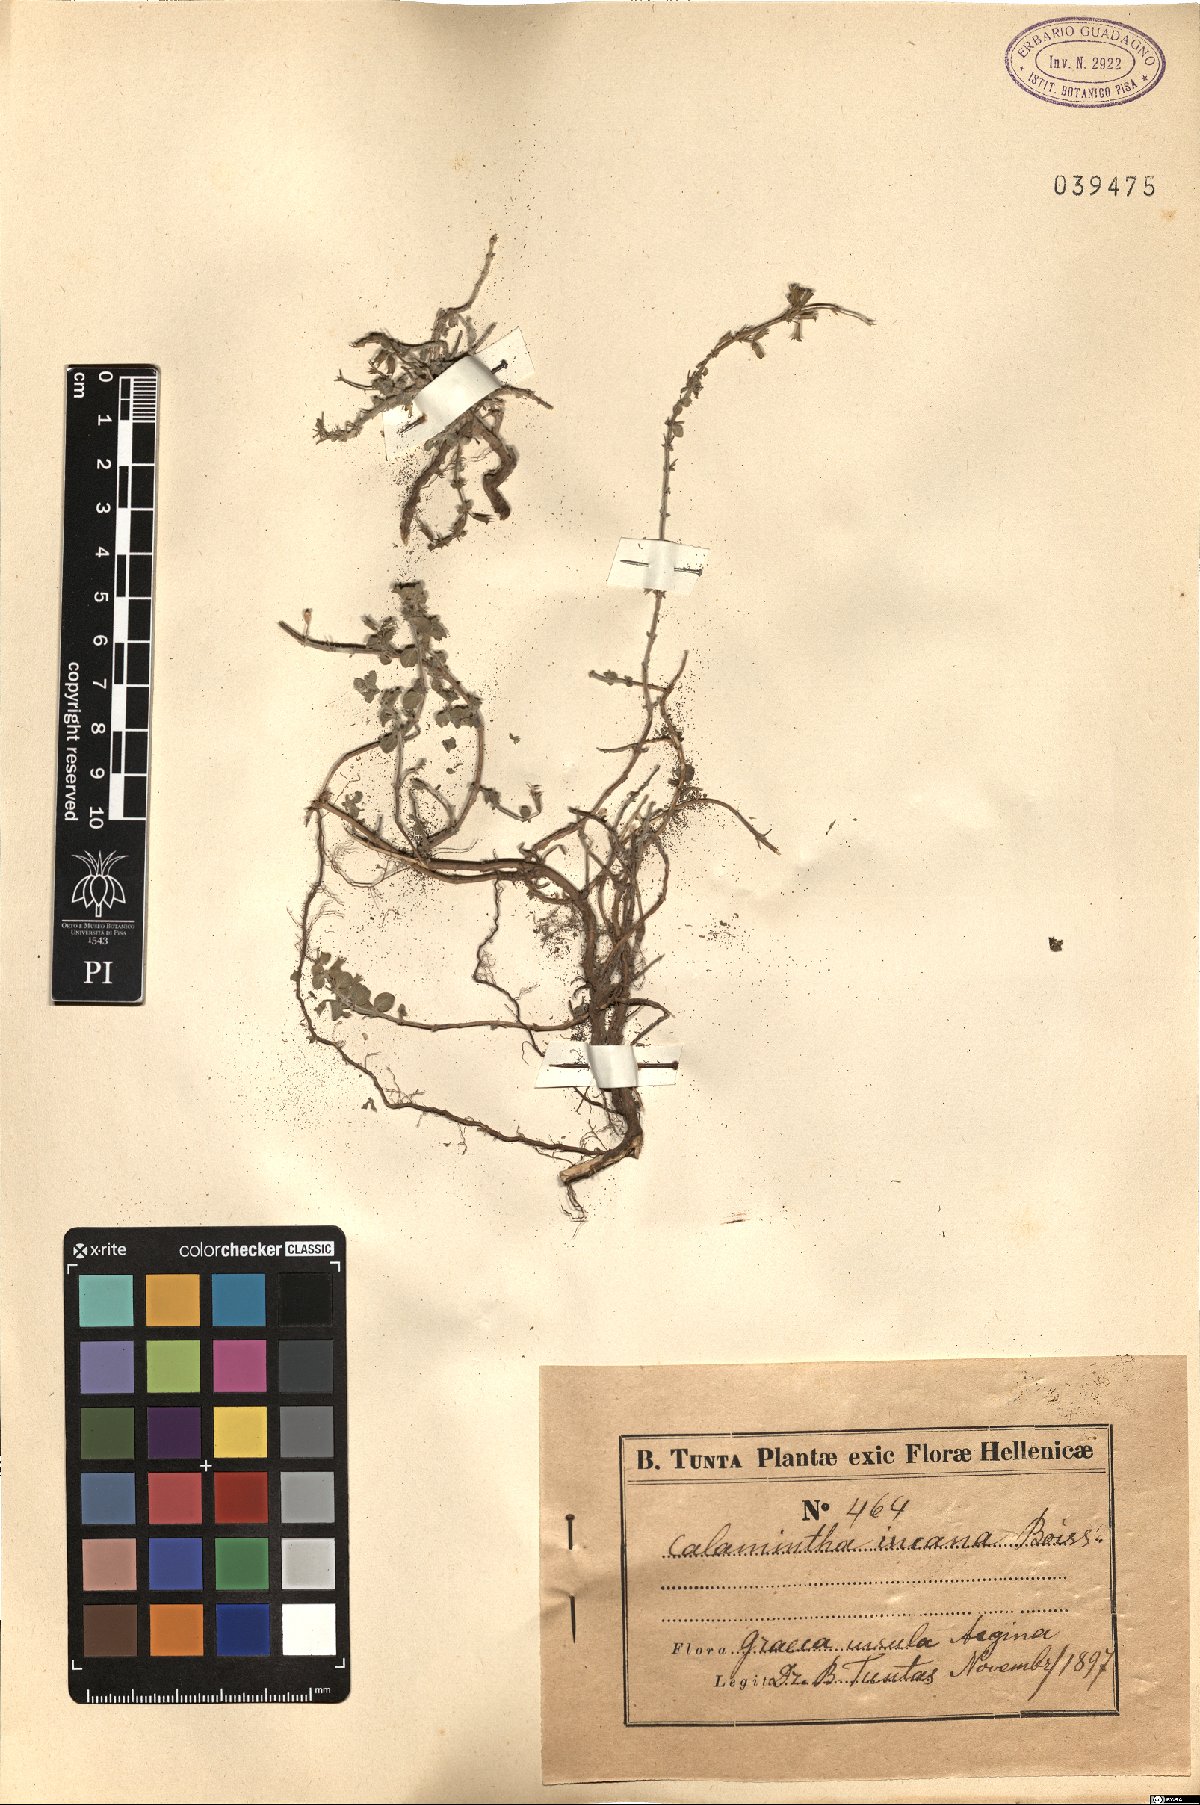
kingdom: Plantae
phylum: Tracheophyta
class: Magnoliopsida
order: Lamiales
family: Lamiaceae
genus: Clinopodium
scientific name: Clinopodium brevifolium
